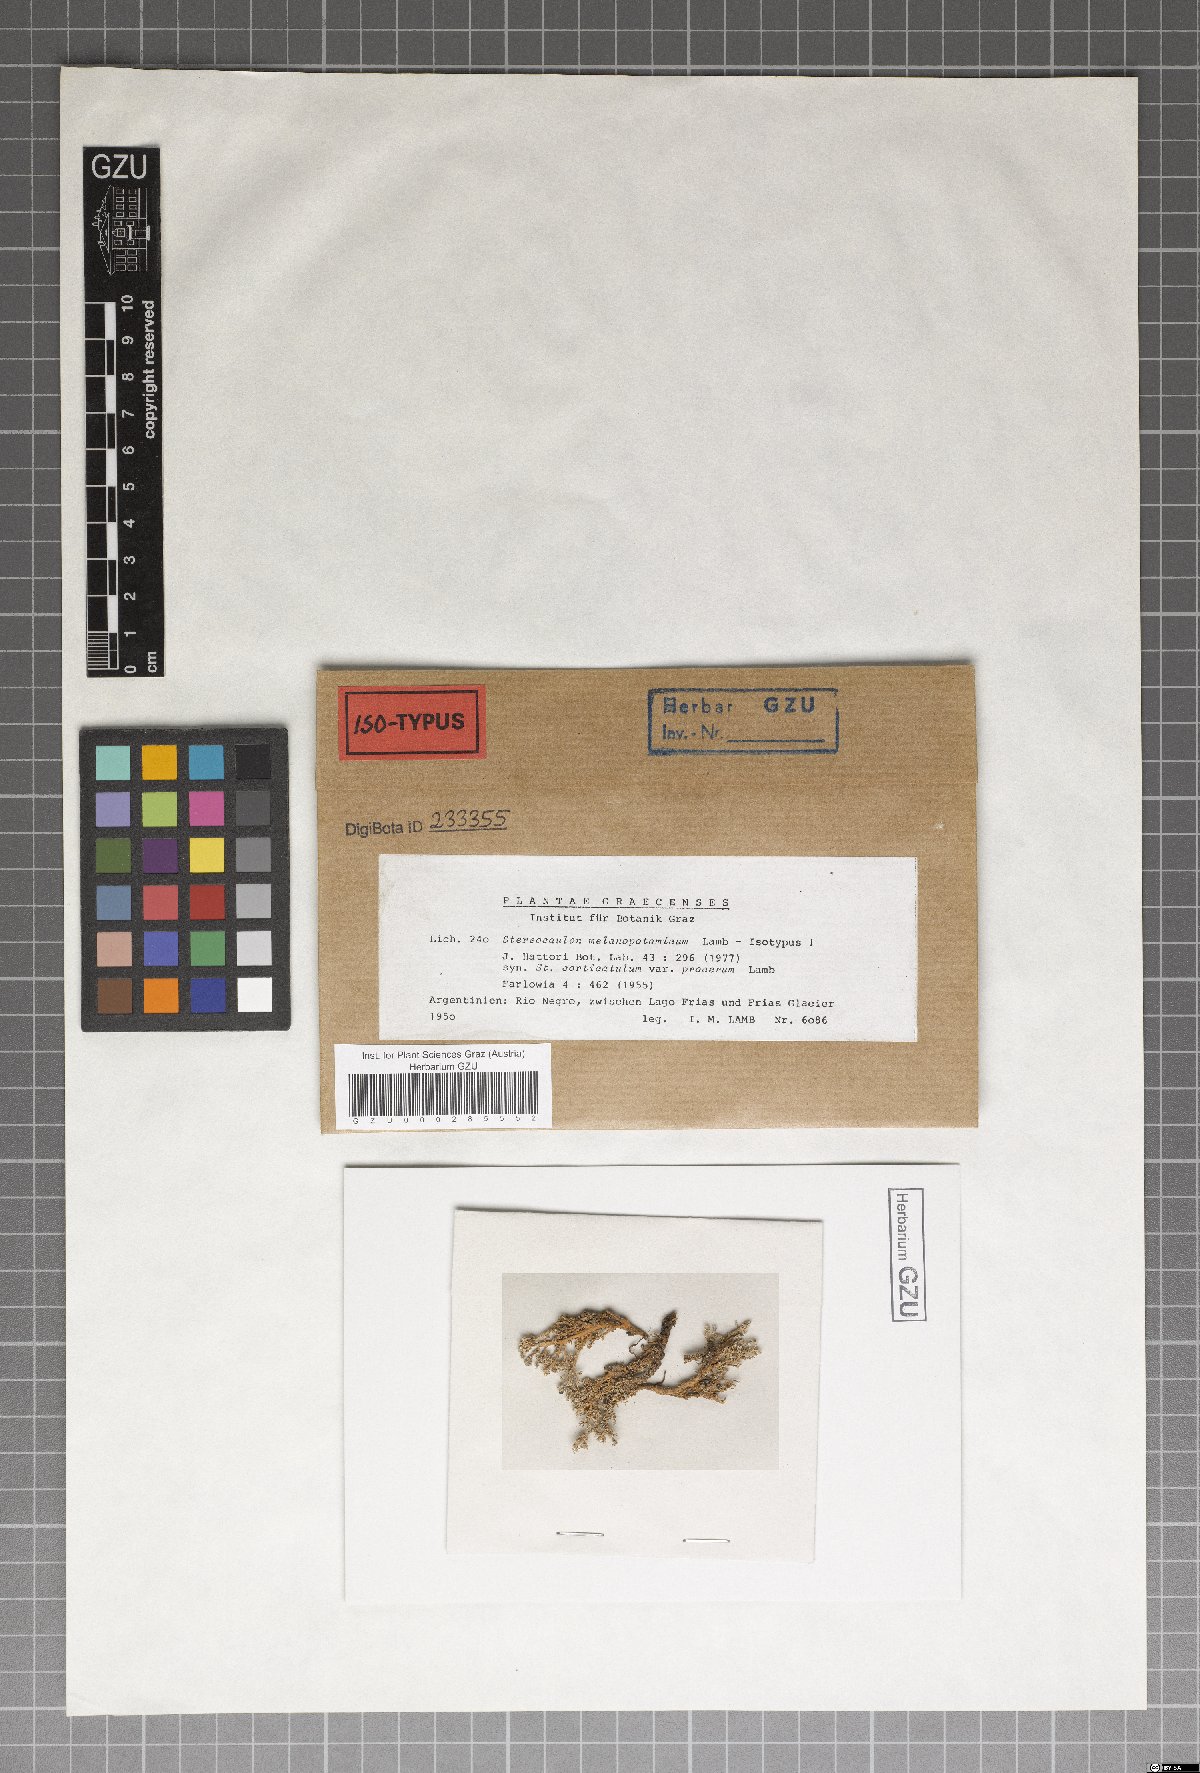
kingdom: Fungi
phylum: Ascomycota
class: Lecanoromycetes
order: Lecanorales
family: Stereocaulaceae
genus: Stereocaulon
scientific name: Stereocaulon melanopotamicum
